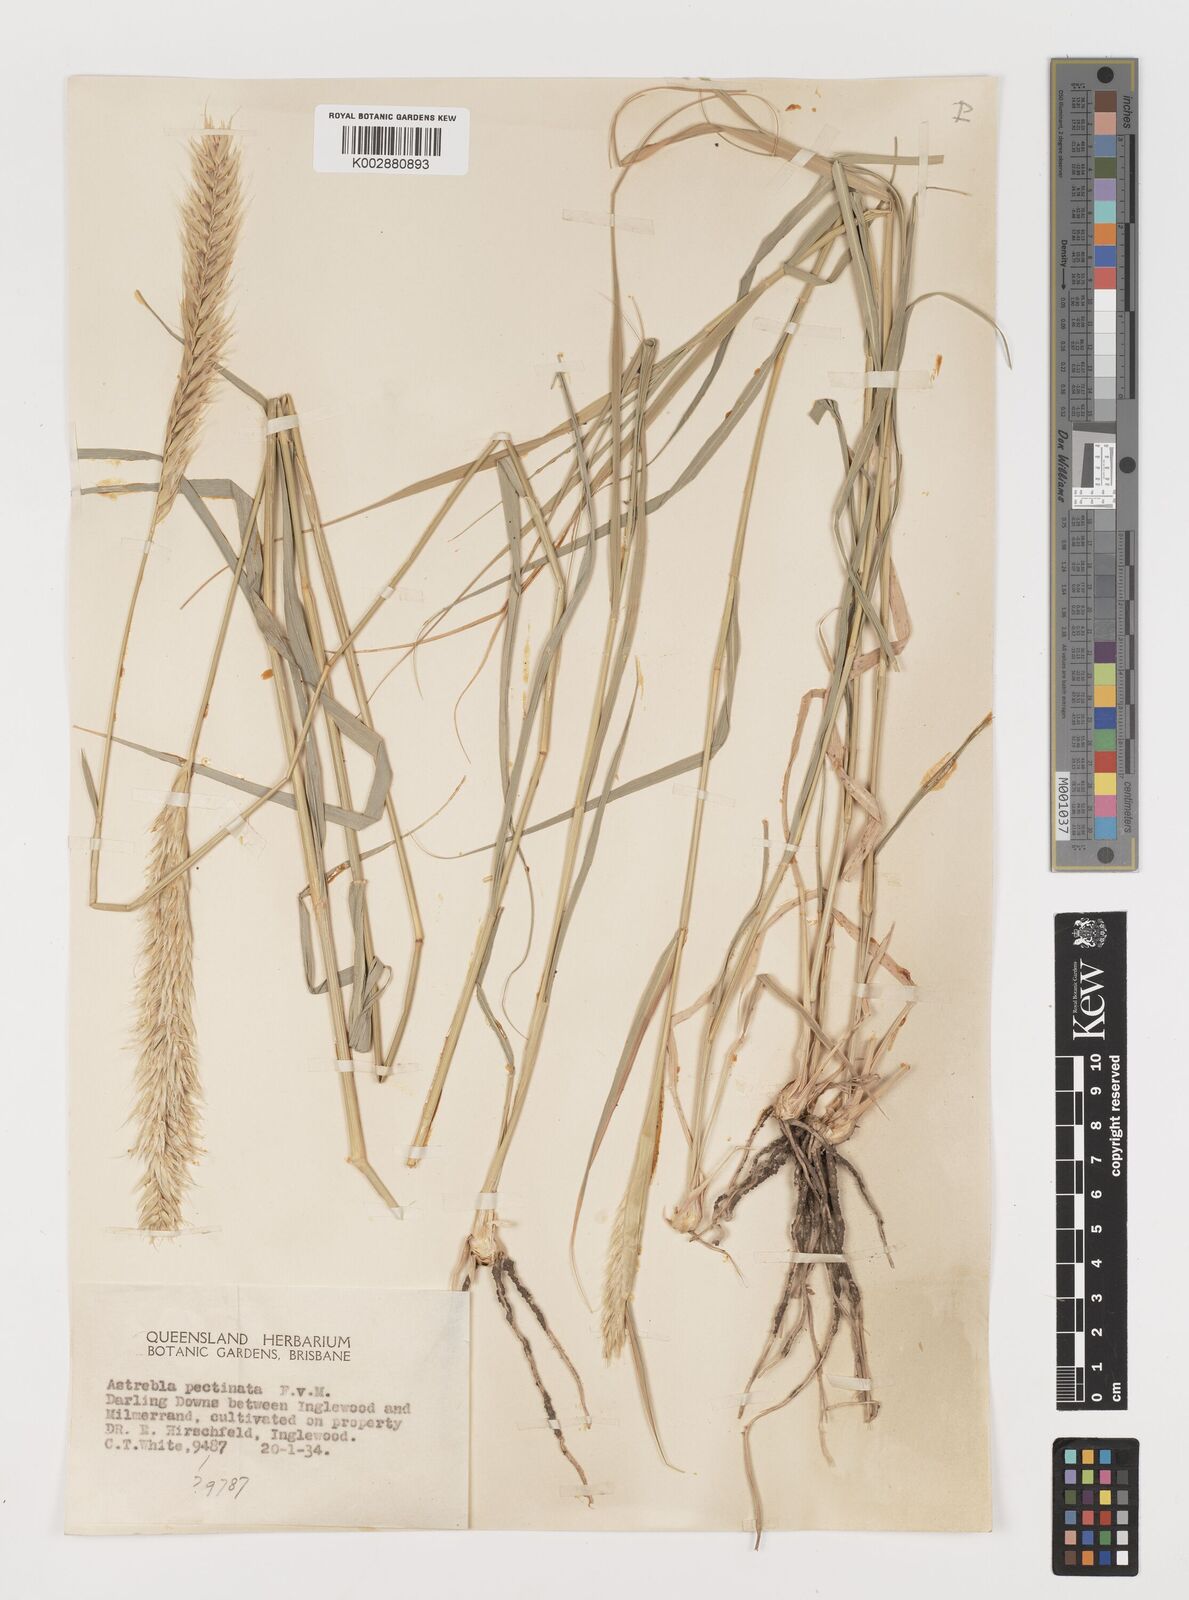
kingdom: Plantae
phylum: Tracheophyta
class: Liliopsida
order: Poales
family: Poaceae
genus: Astrebla
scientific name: Astrebla pectinata
